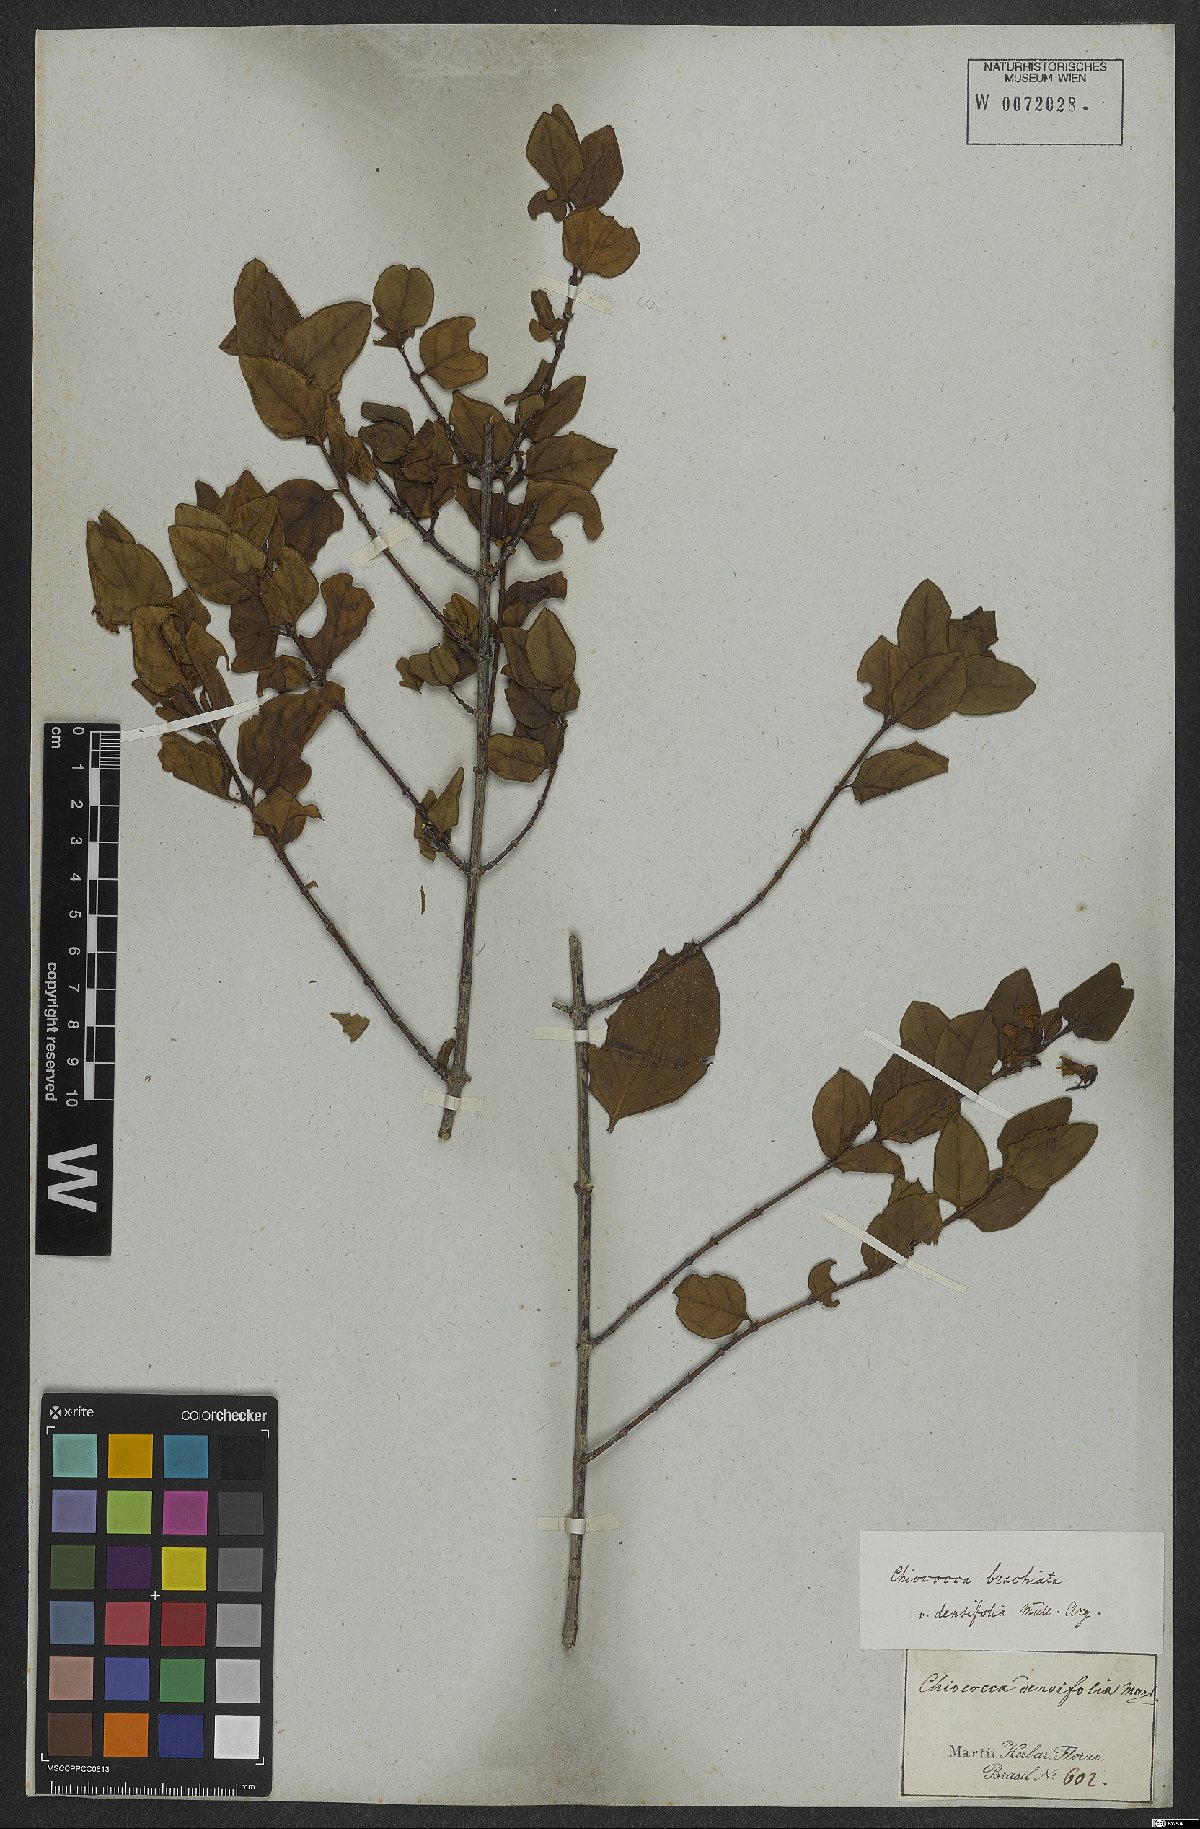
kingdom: Plantae
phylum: Tracheophyta
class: Magnoliopsida
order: Gentianales
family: Rubiaceae
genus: Chiococca
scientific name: Chiococca alba
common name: Snowberry
